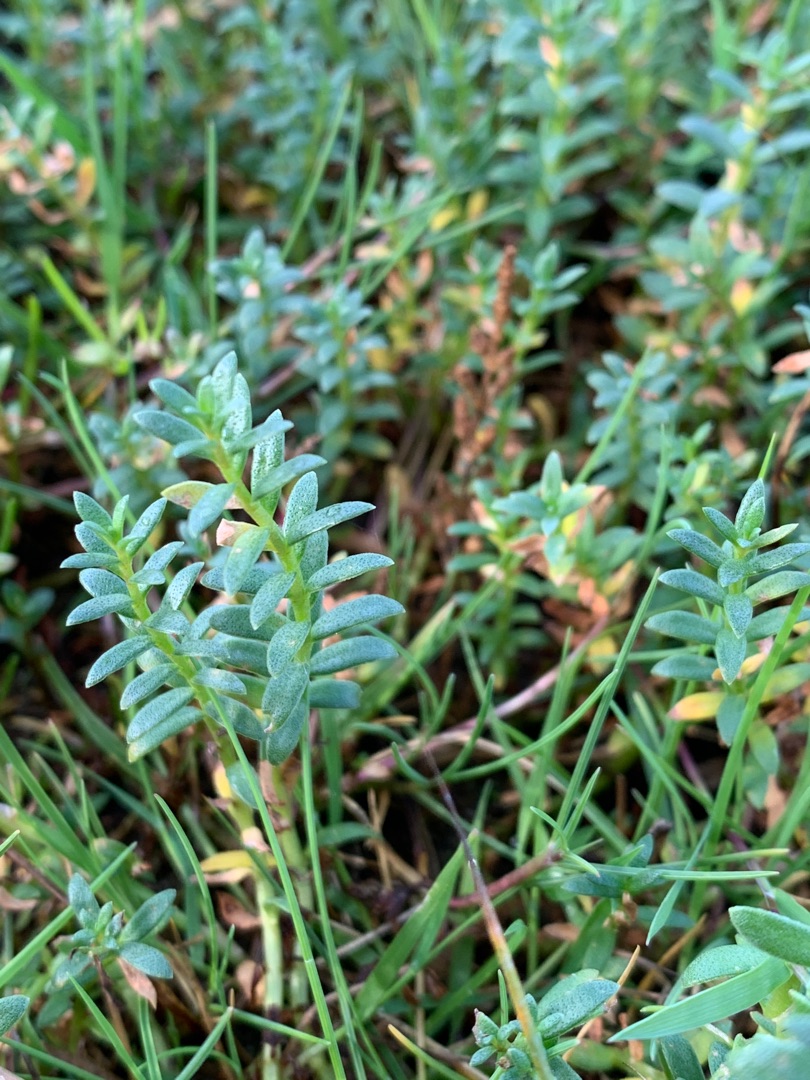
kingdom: Plantae
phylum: Tracheophyta
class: Magnoliopsida
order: Ericales
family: Primulaceae
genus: Lysimachia
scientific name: Lysimachia maritima
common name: Sandkryb
